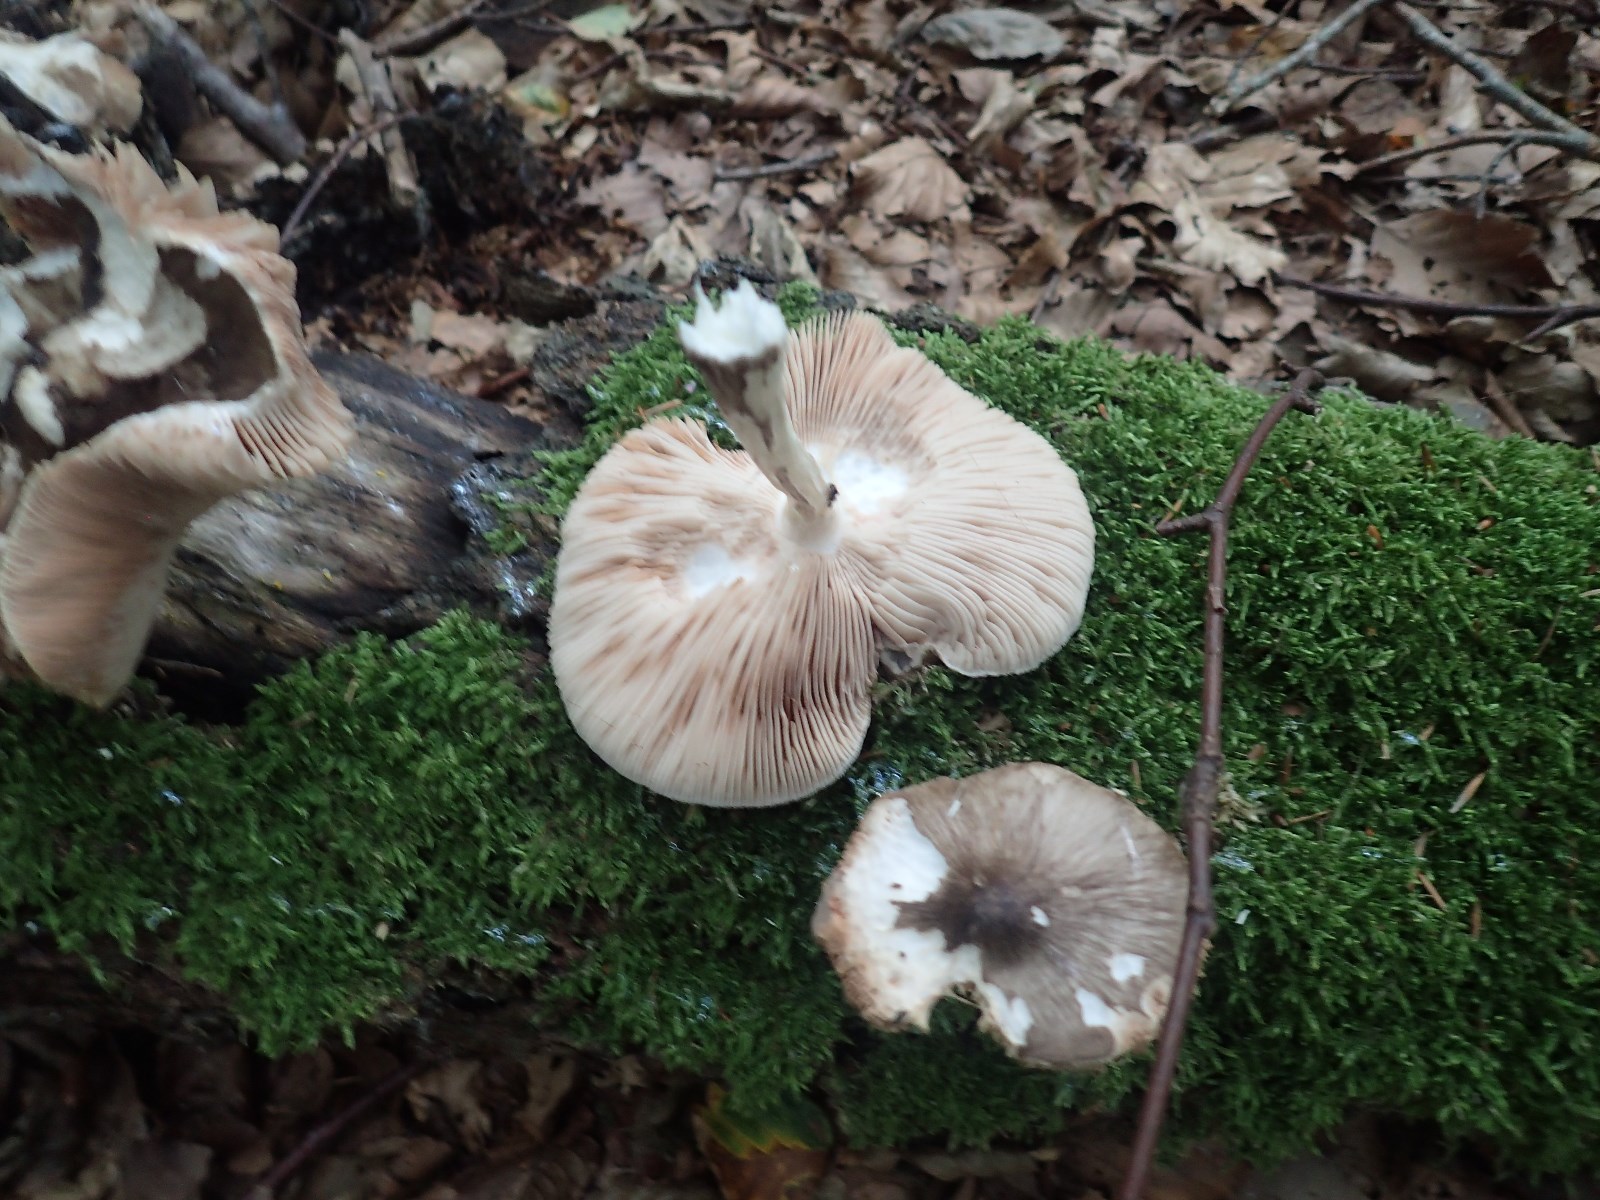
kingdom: Fungi
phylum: Basidiomycota
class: Agaricomycetes
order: Agaricales
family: Pluteaceae
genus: Pluteus
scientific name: Pluteus cervinus
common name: sodfarvet skærmhat
